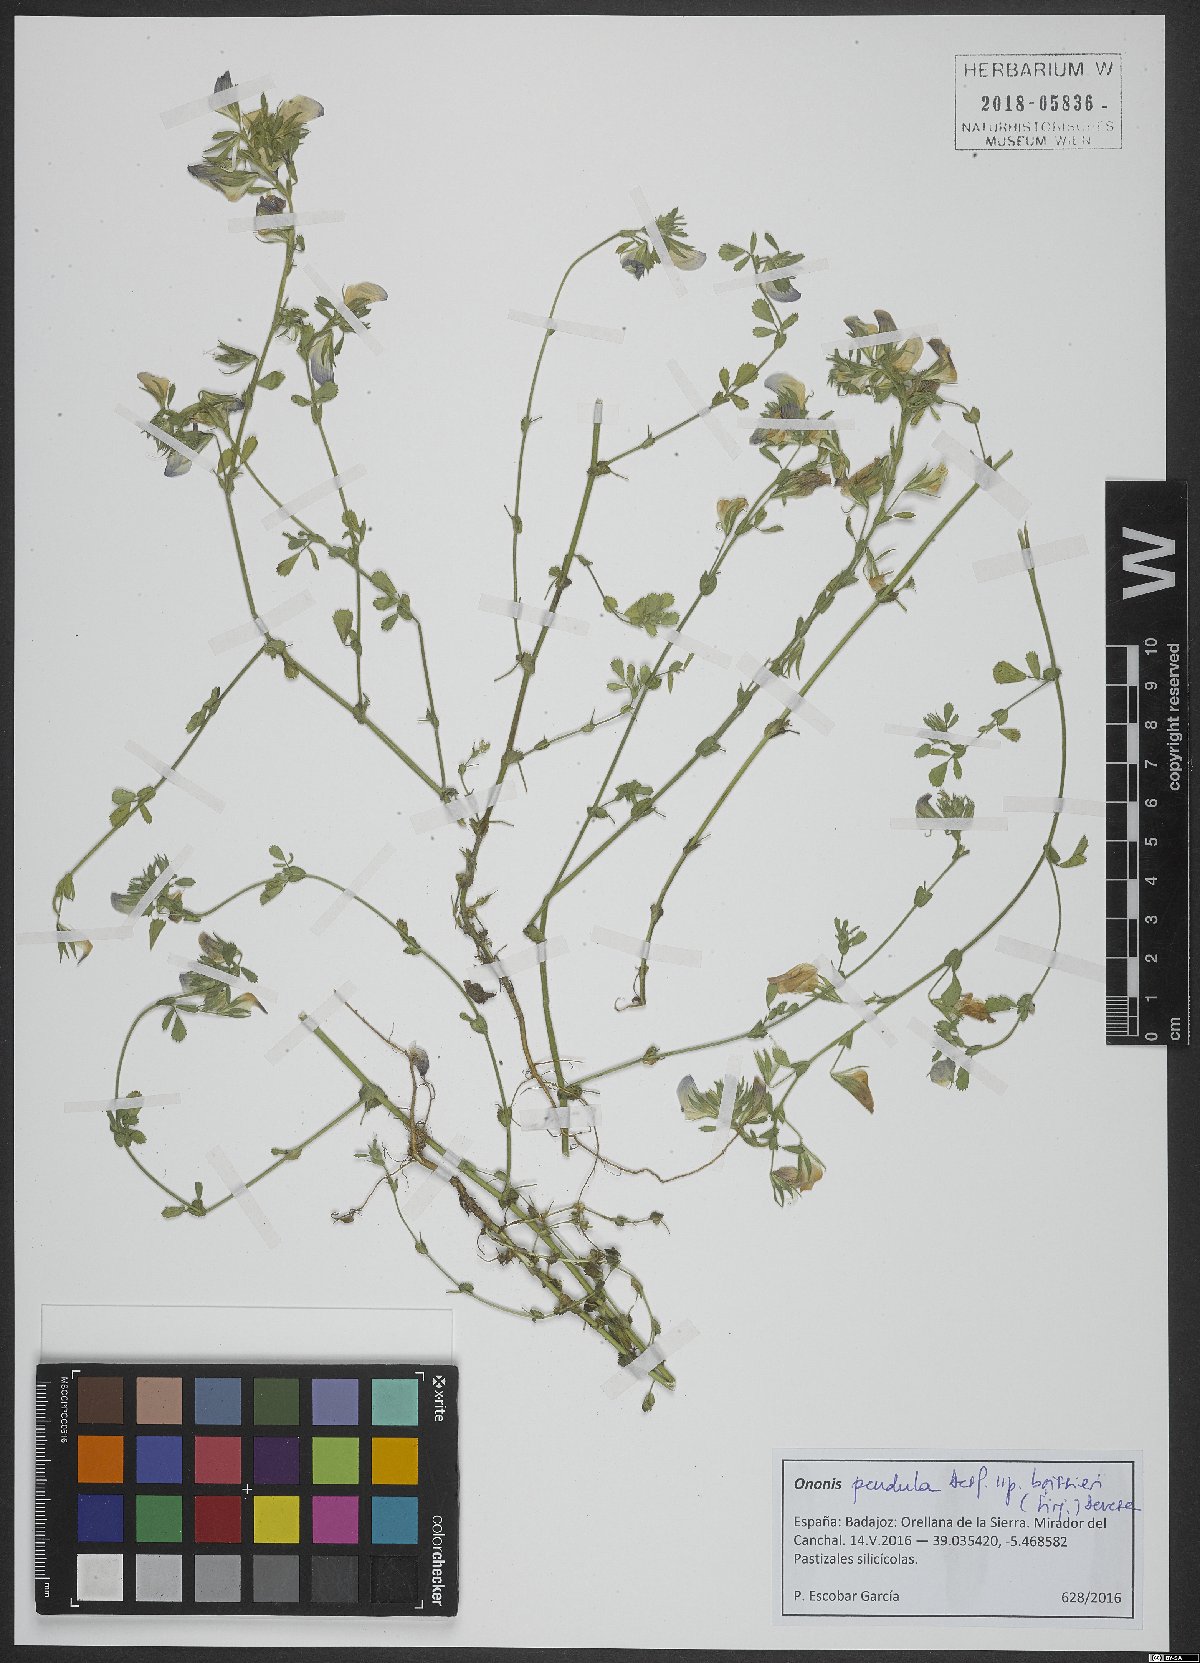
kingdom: Plantae
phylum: Tracheophyta
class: Magnoliopsida
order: Fabales
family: Fabaceae
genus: Ononis
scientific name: Ononis pendula
